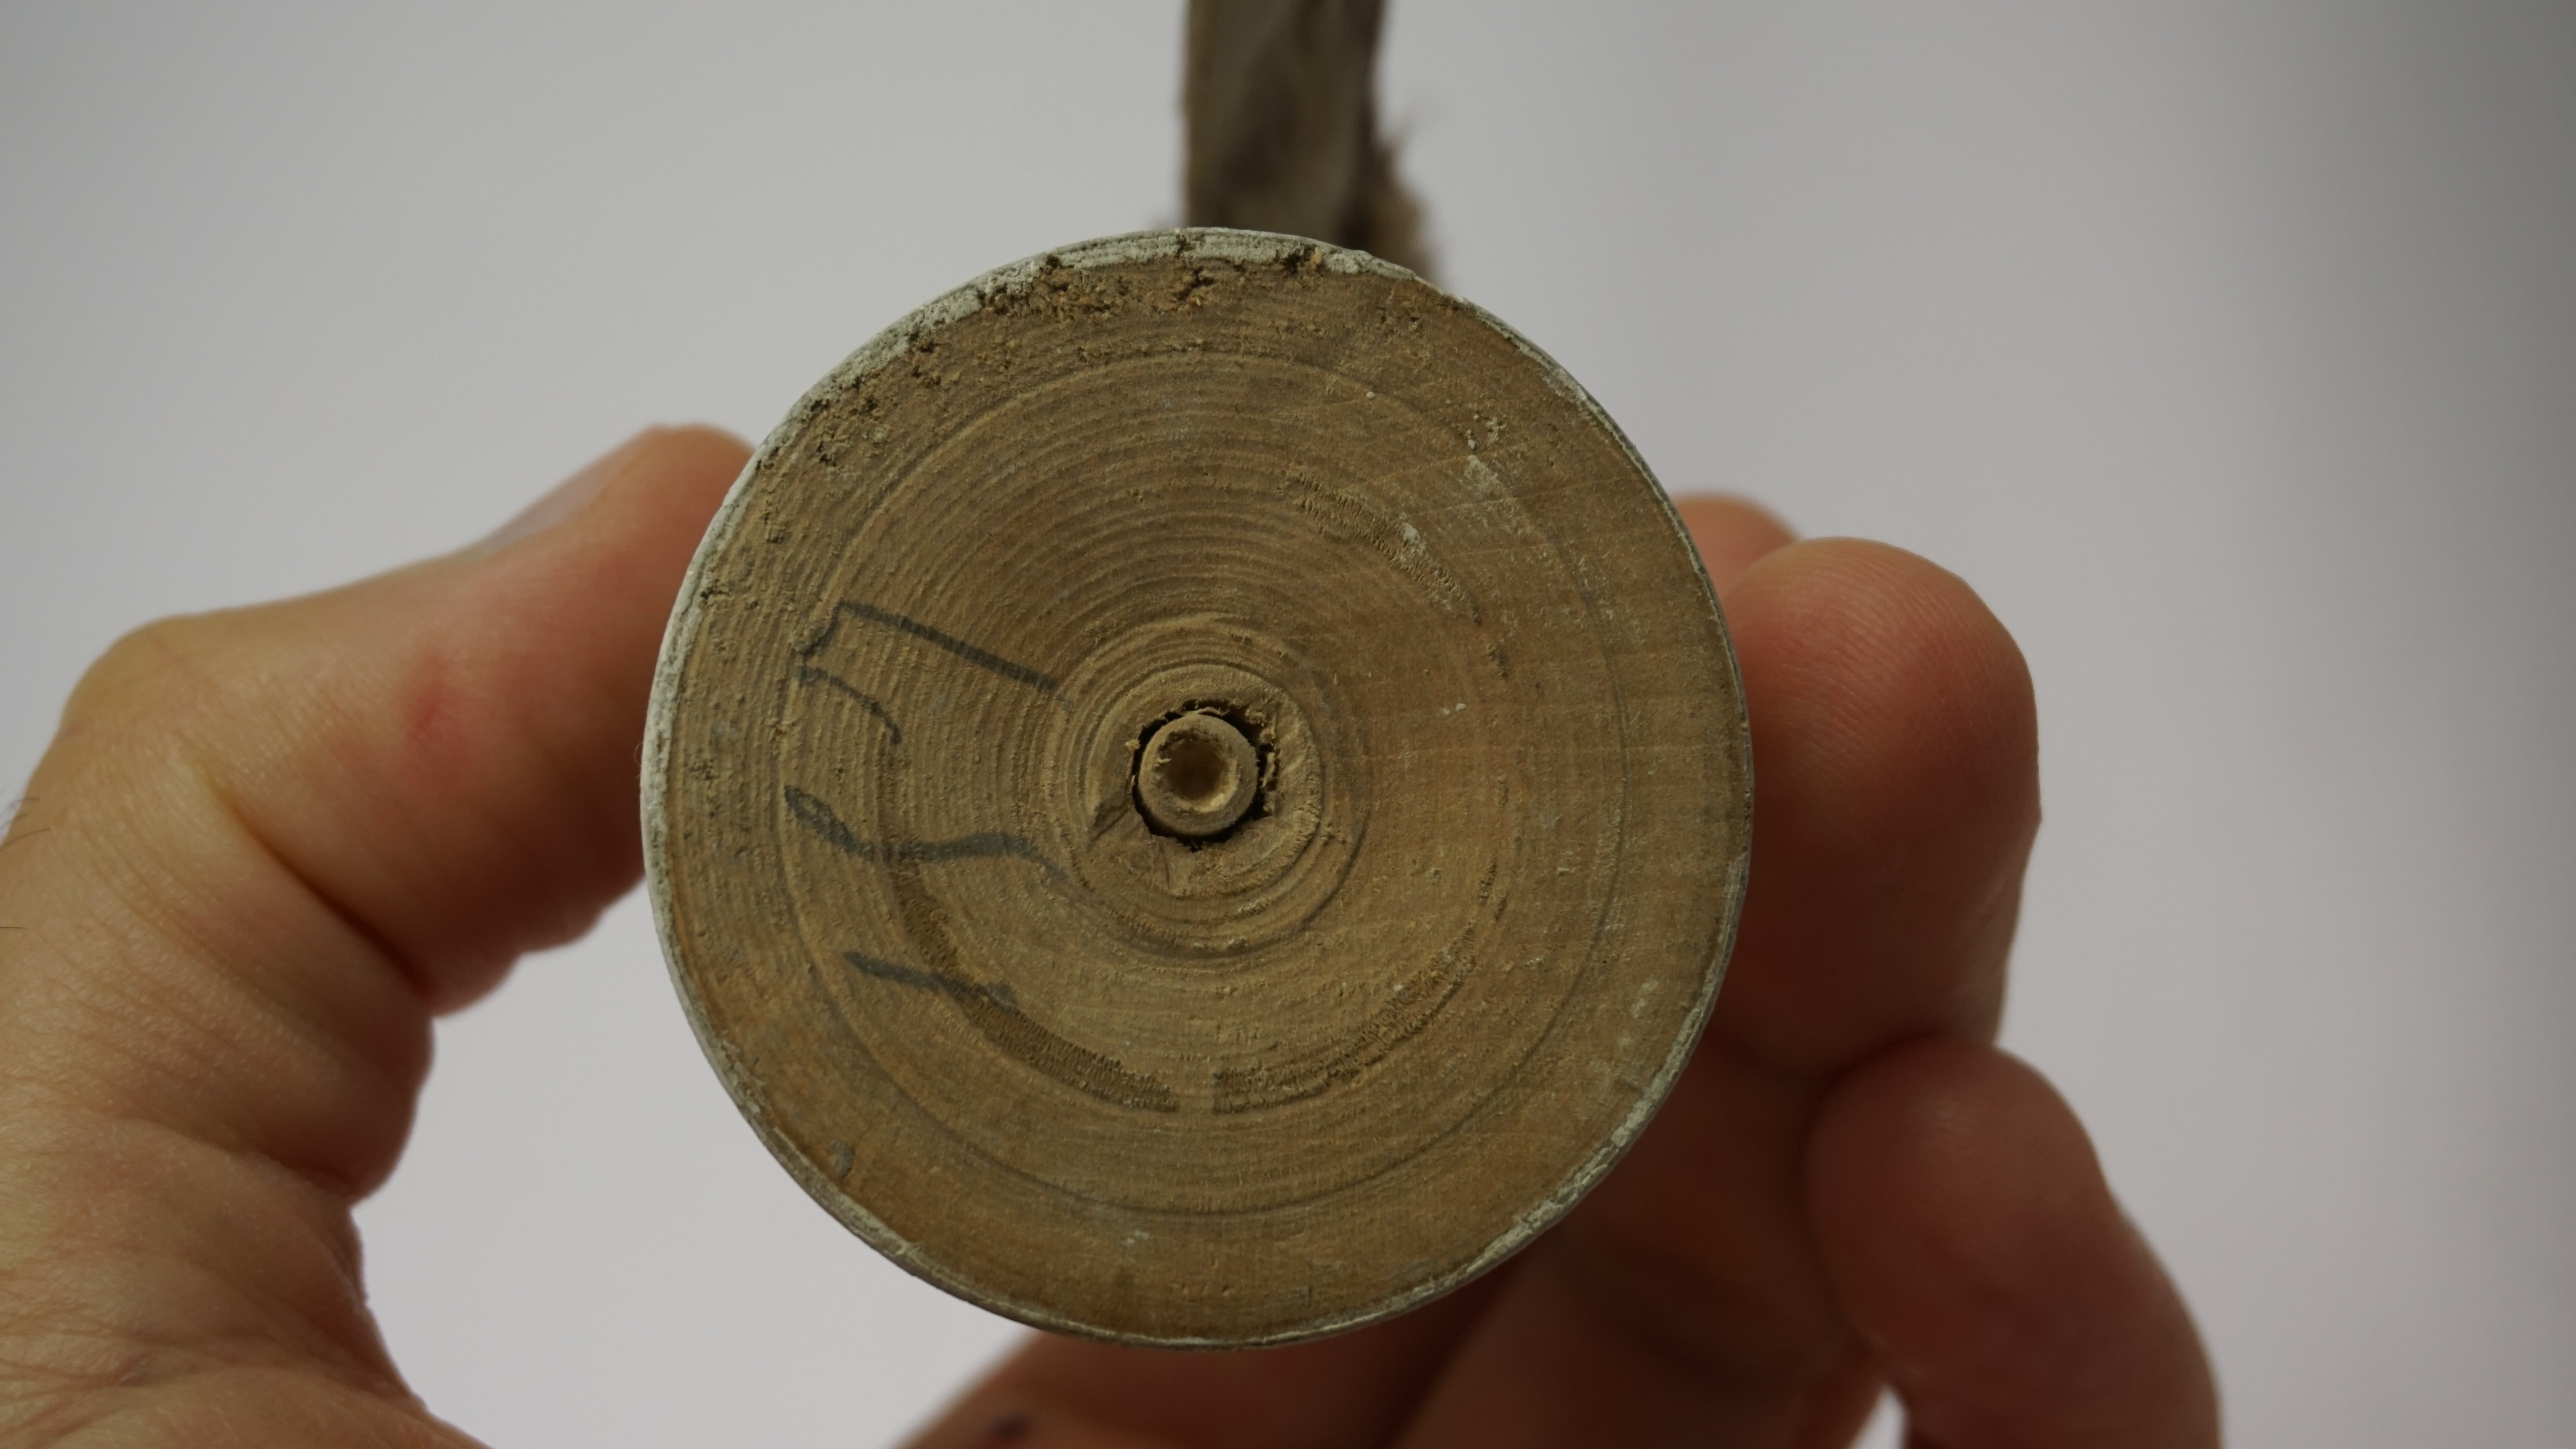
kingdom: Animalia
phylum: Chordata
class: Aves
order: Passeriformes
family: Acrocephalidae
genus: Acrocephalus
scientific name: Acrocephalus melanopogon
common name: Moustached warbler
